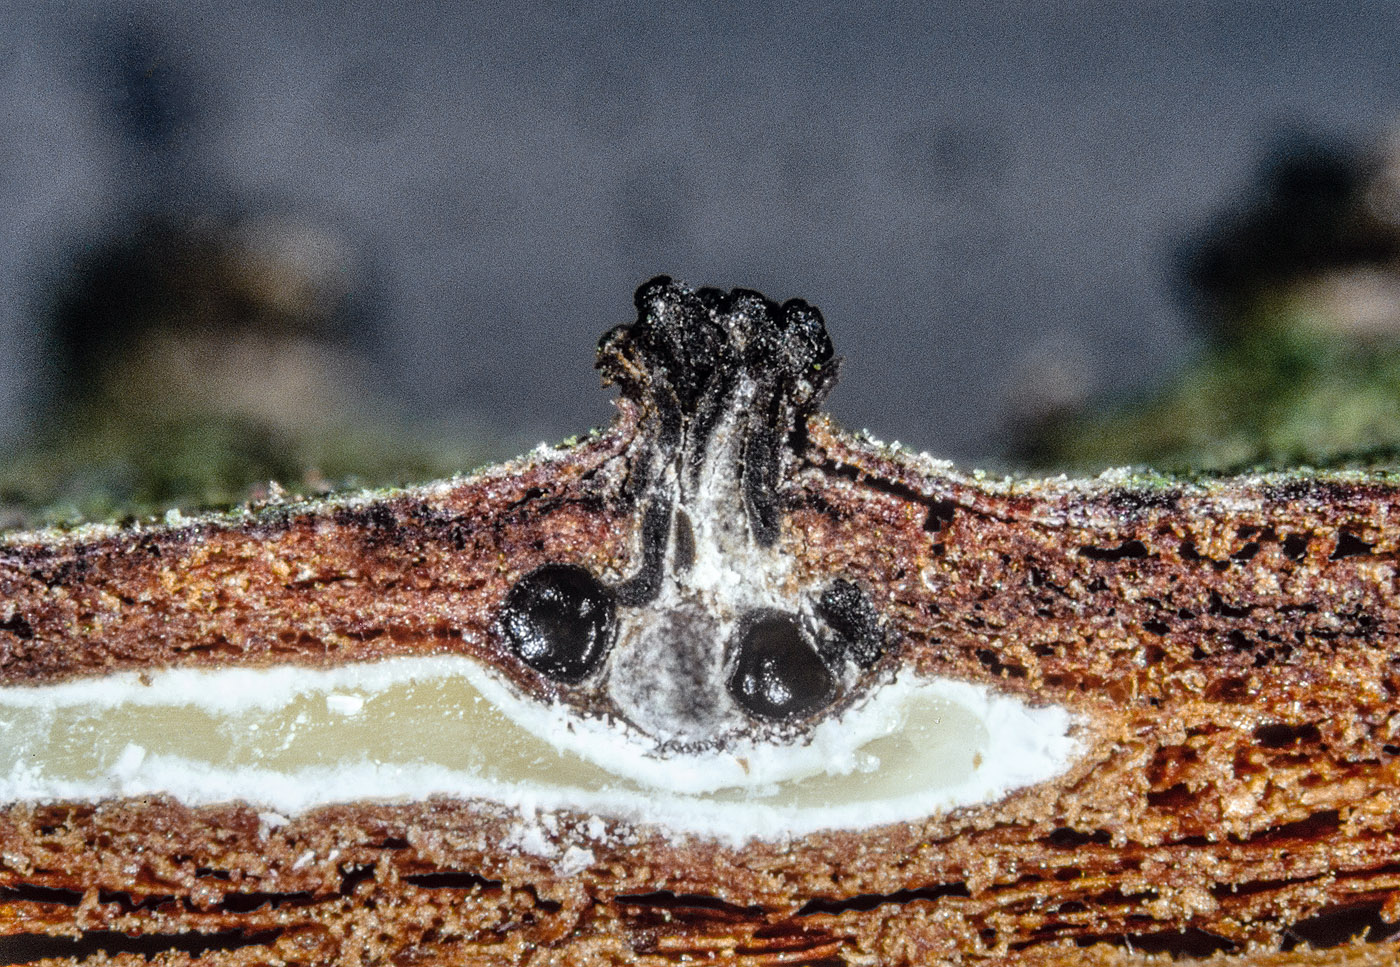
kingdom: Fungi
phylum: Ascomycota
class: Sordariomycetes
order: Diaporthales
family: Valsaceae
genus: Cytospora
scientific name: Cytospora pinastri
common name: ædelgran-kulknippe
